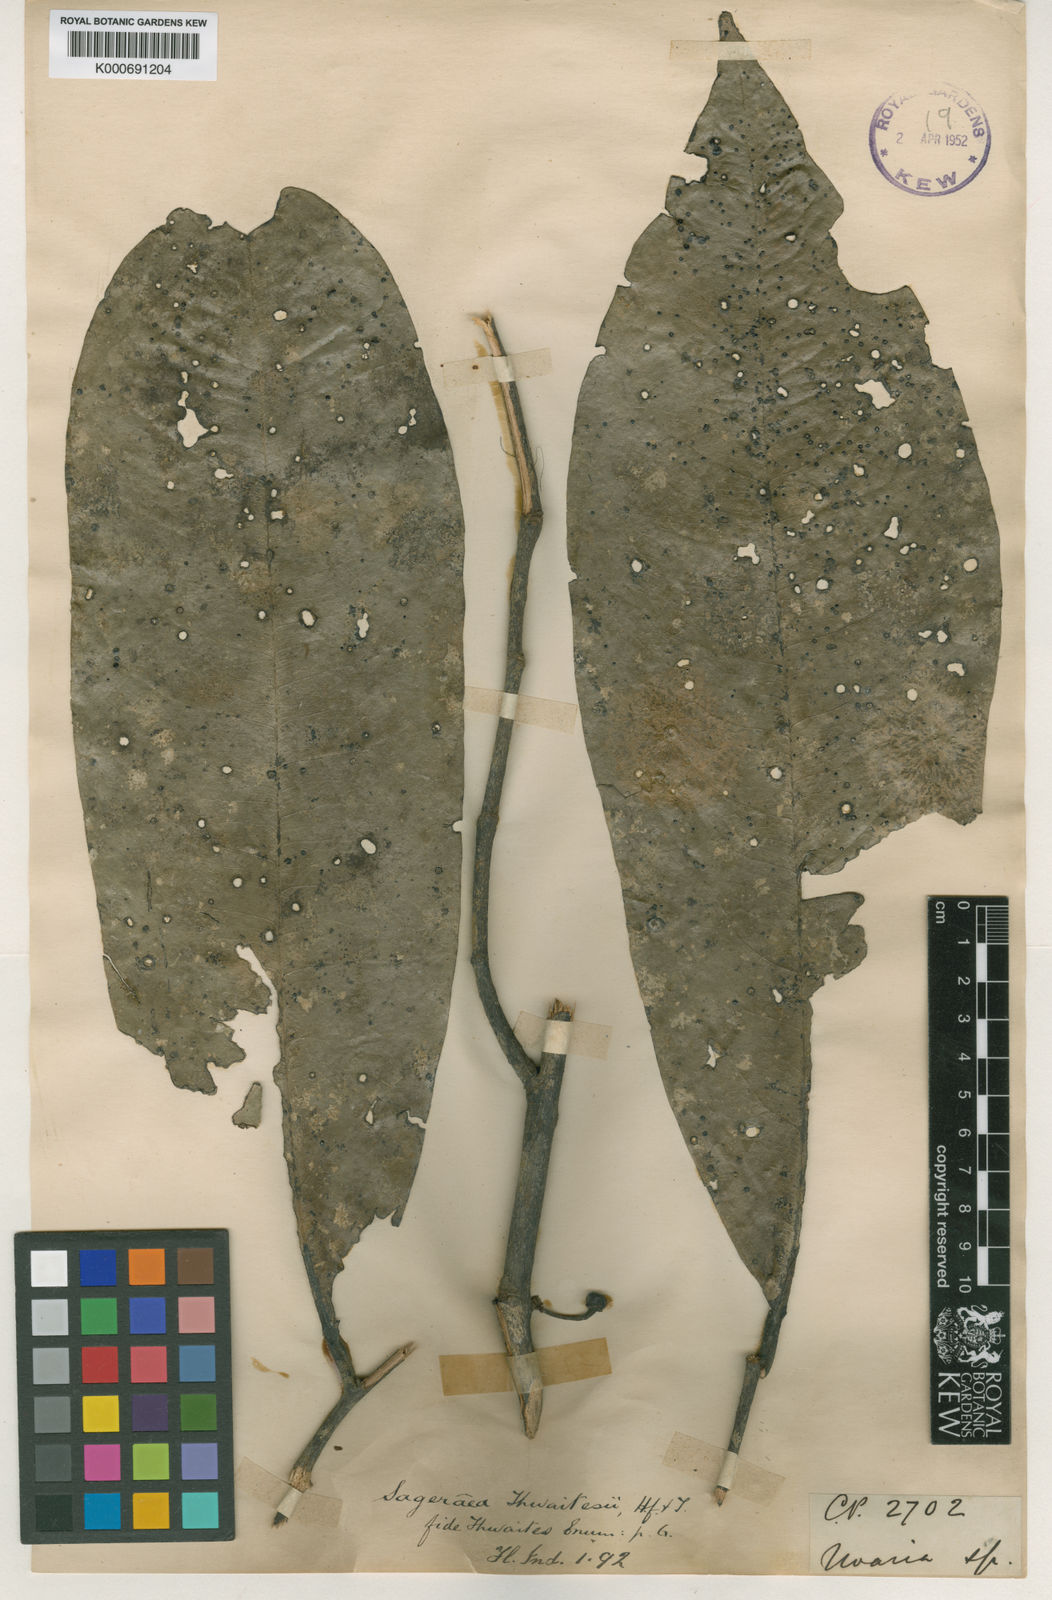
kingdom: Plantae
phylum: Tracheophyta
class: Magnoliopsida
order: Magnoliales
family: Annonaceae
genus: Sageraea
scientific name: Sageraea thwaitesii
